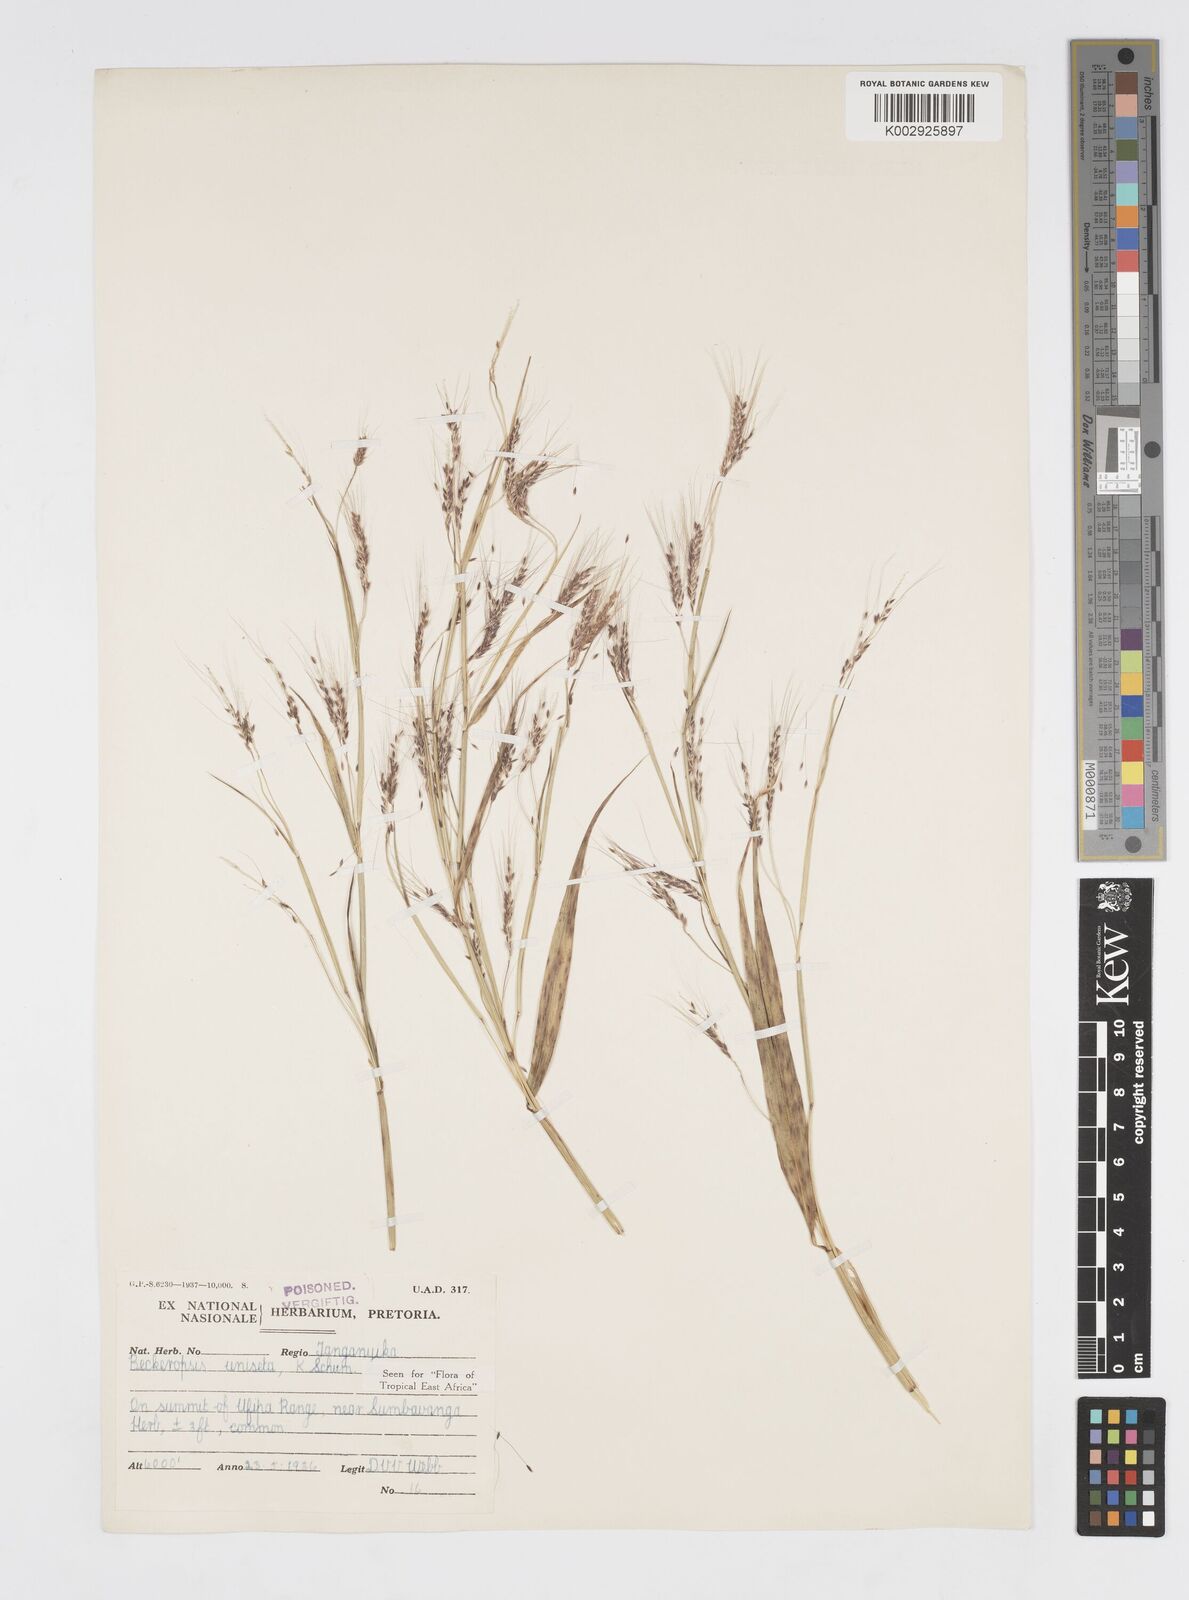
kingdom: Plantae
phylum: Tracheophyta
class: Liliopsida
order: Poales
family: Poaceae
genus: Cenchrus
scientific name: Cenchrus unisetus
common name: Natal grass
